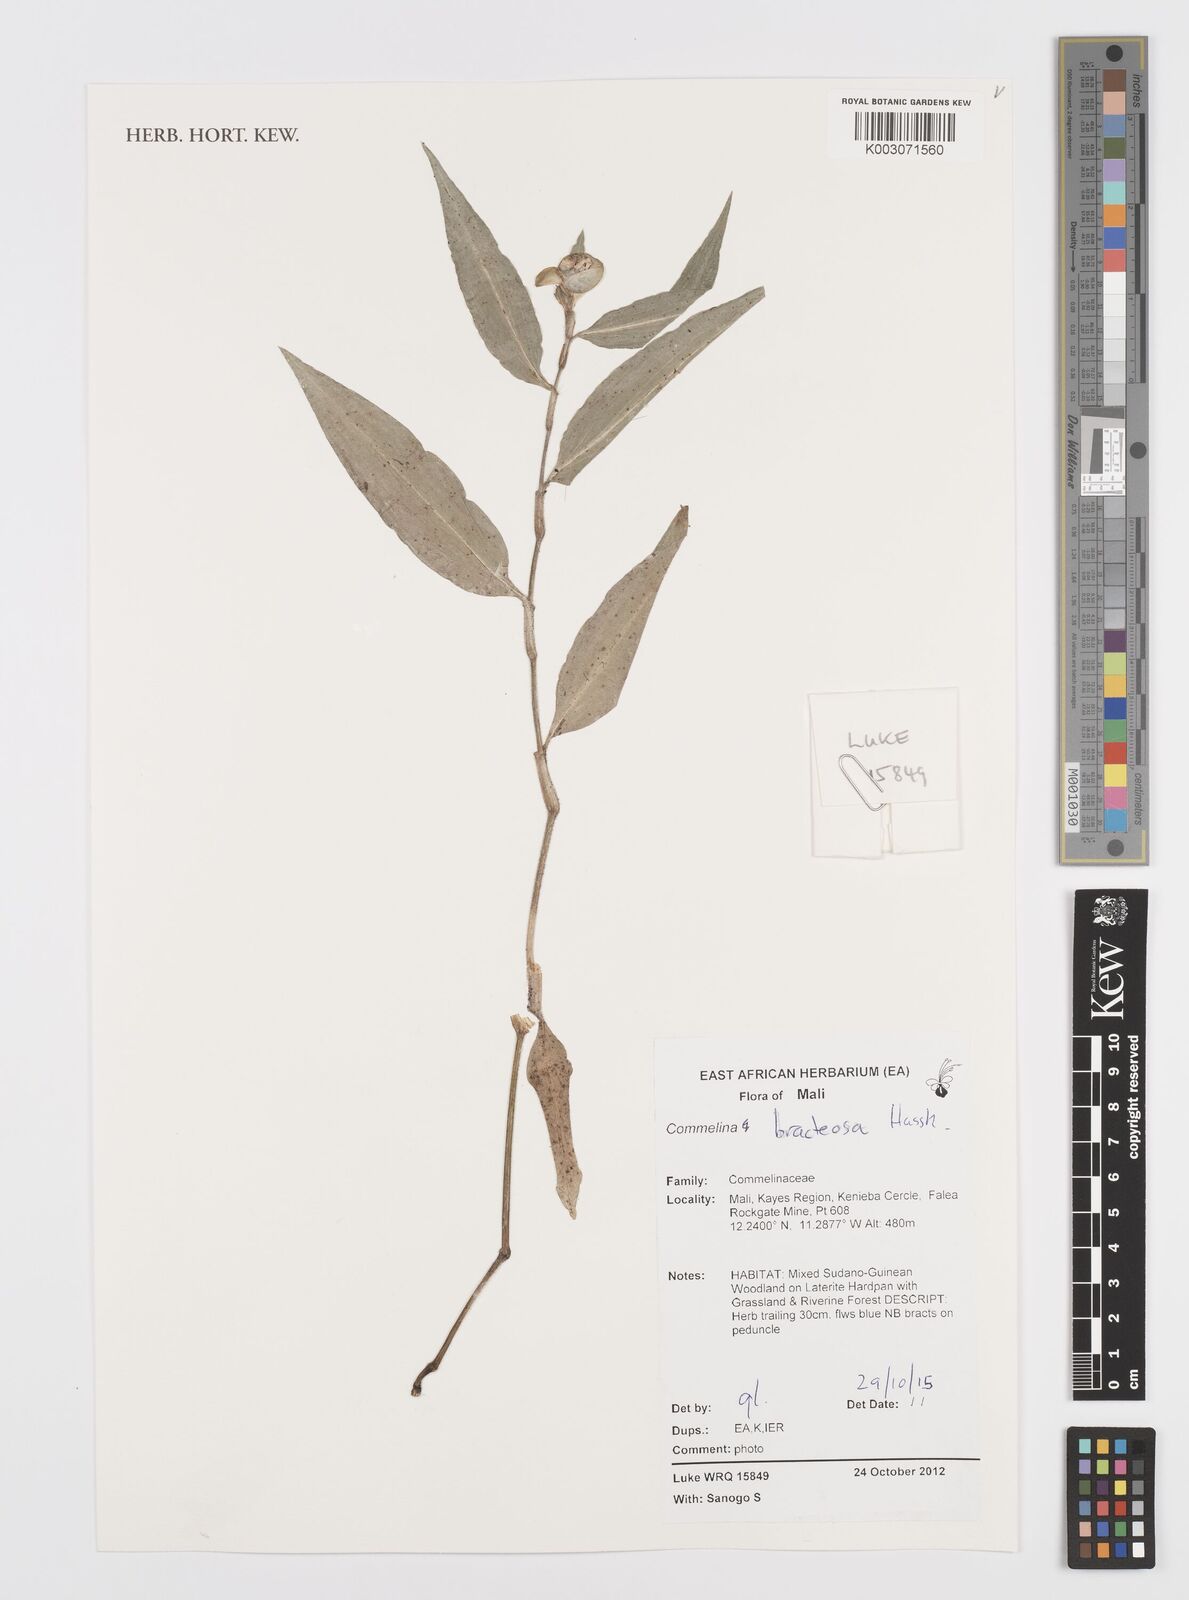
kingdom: Plantae
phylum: Tracheophyta
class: Liliopsida
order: Commelinales
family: Commelinaceae
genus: Commelina
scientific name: Commelina bracteosa
